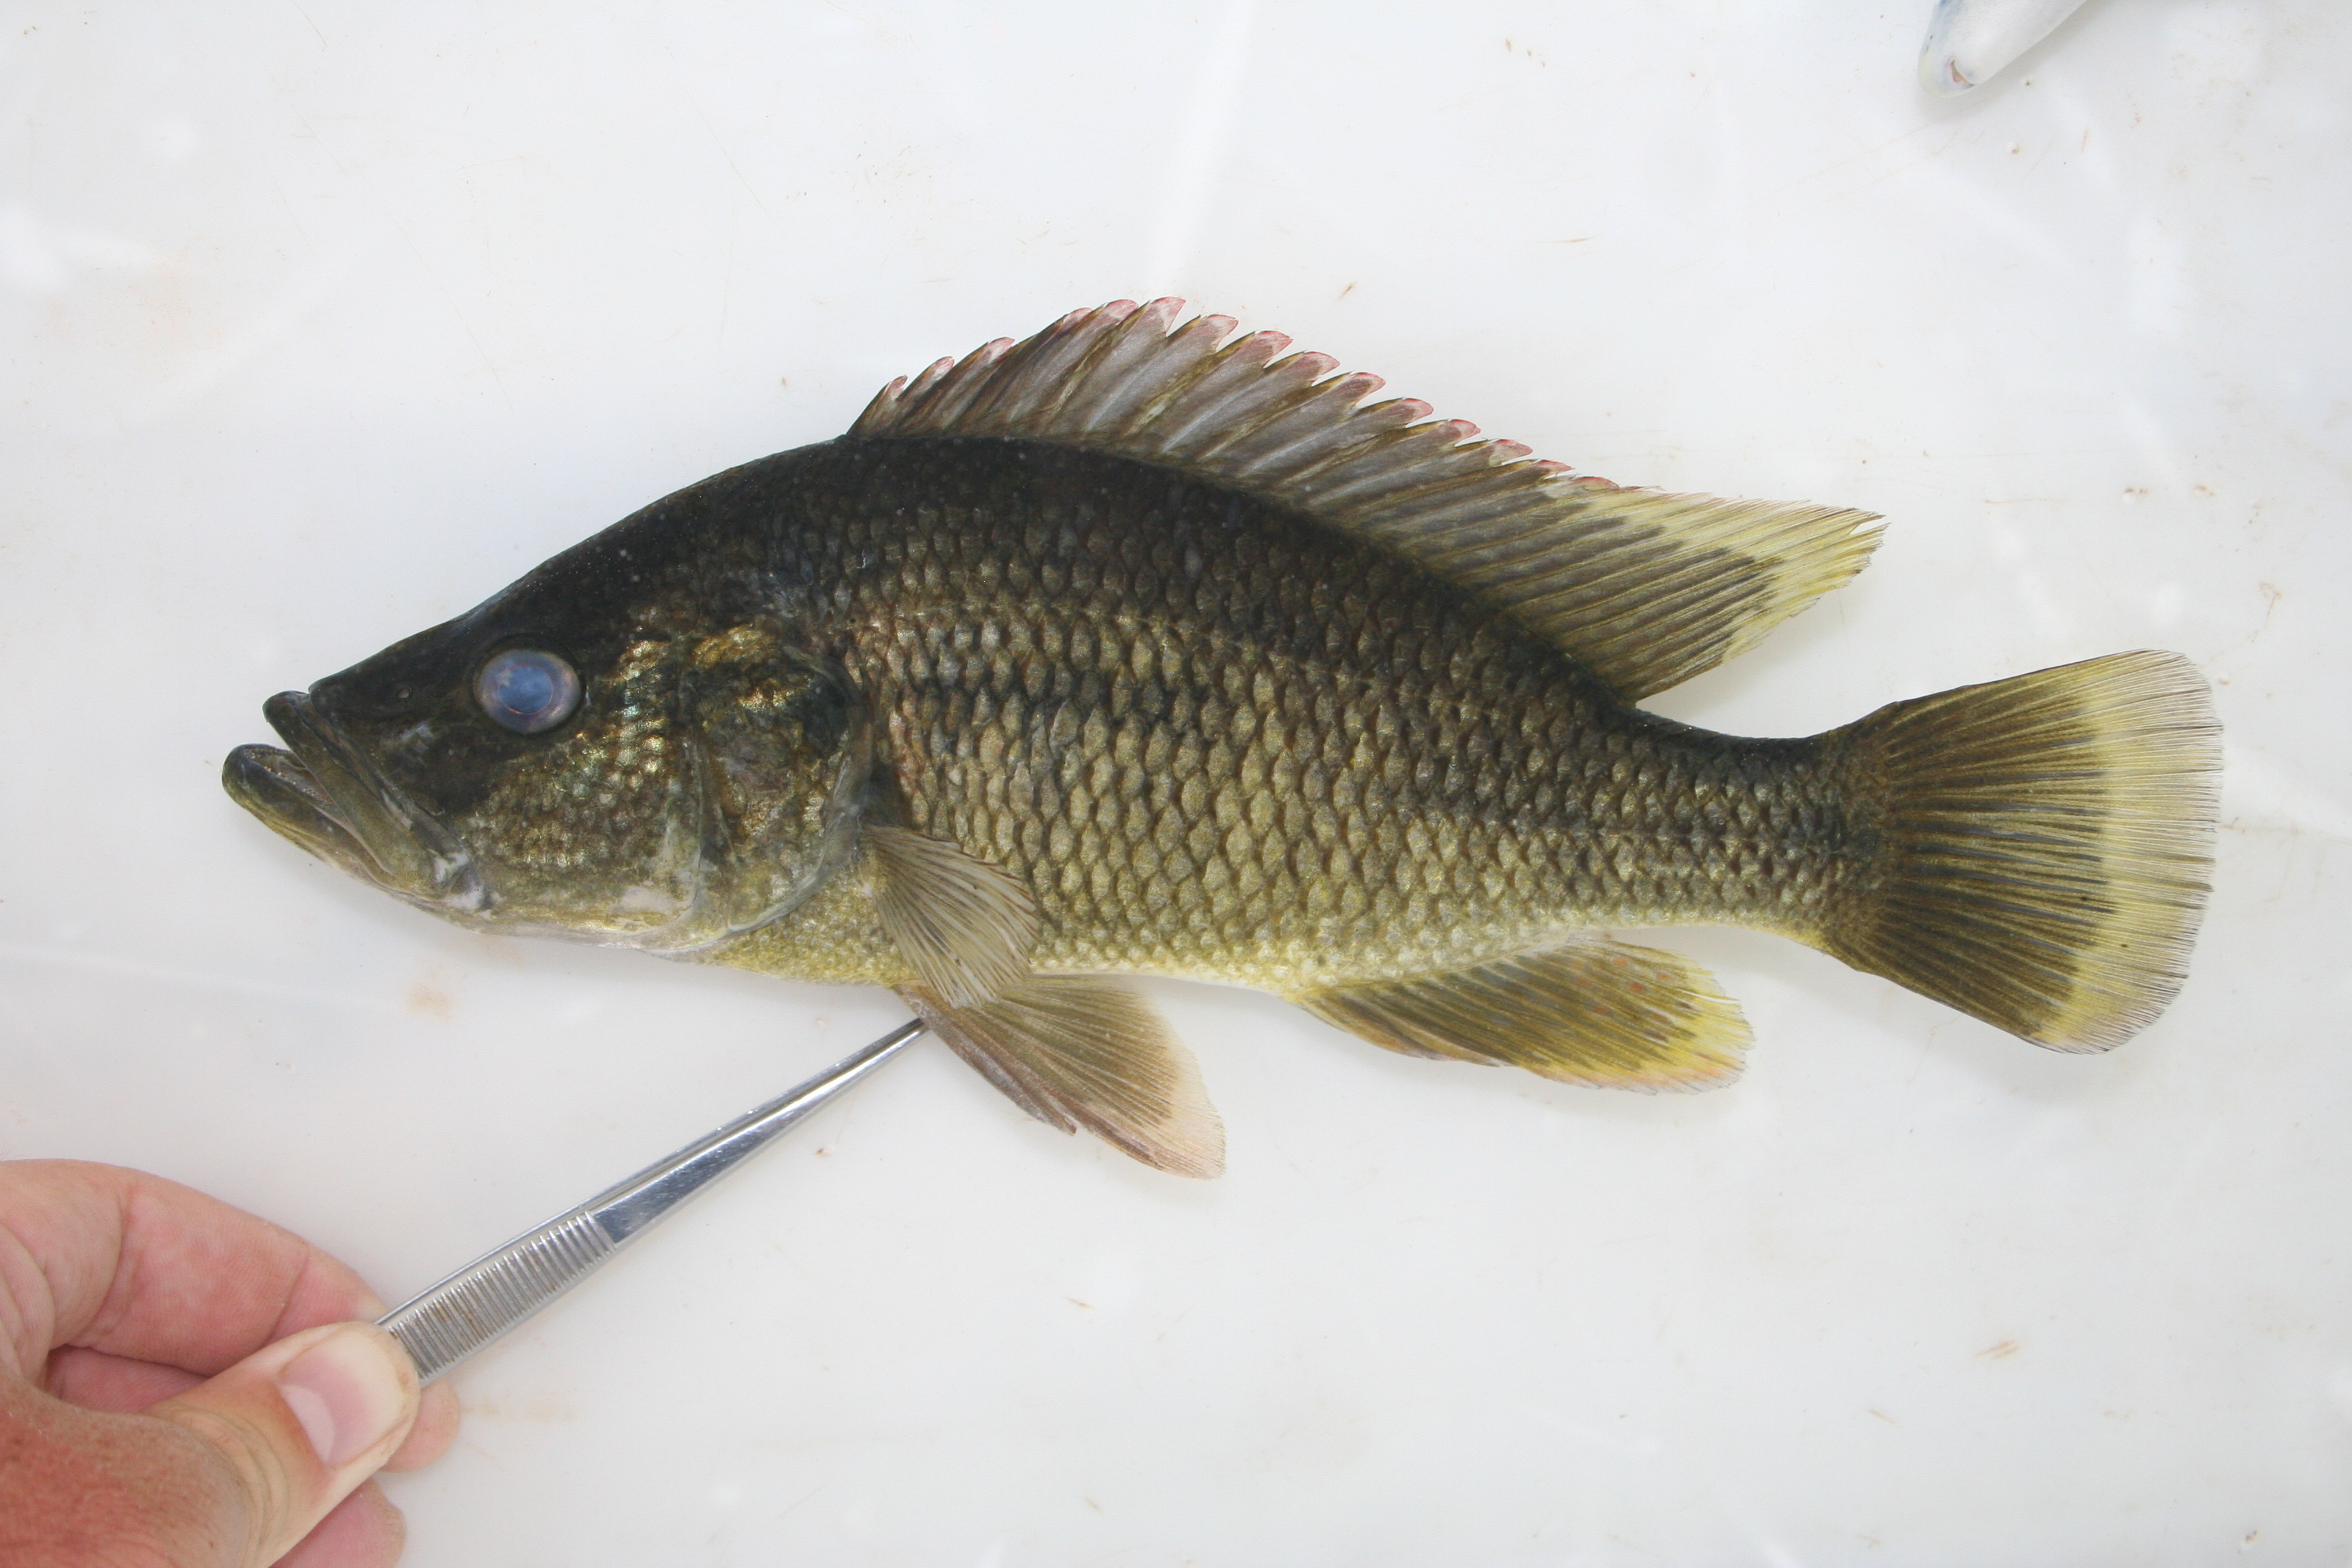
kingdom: Animalia
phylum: Chordata
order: Perciformes
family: Cichlidae
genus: Serranochromis
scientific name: Serranochromis
